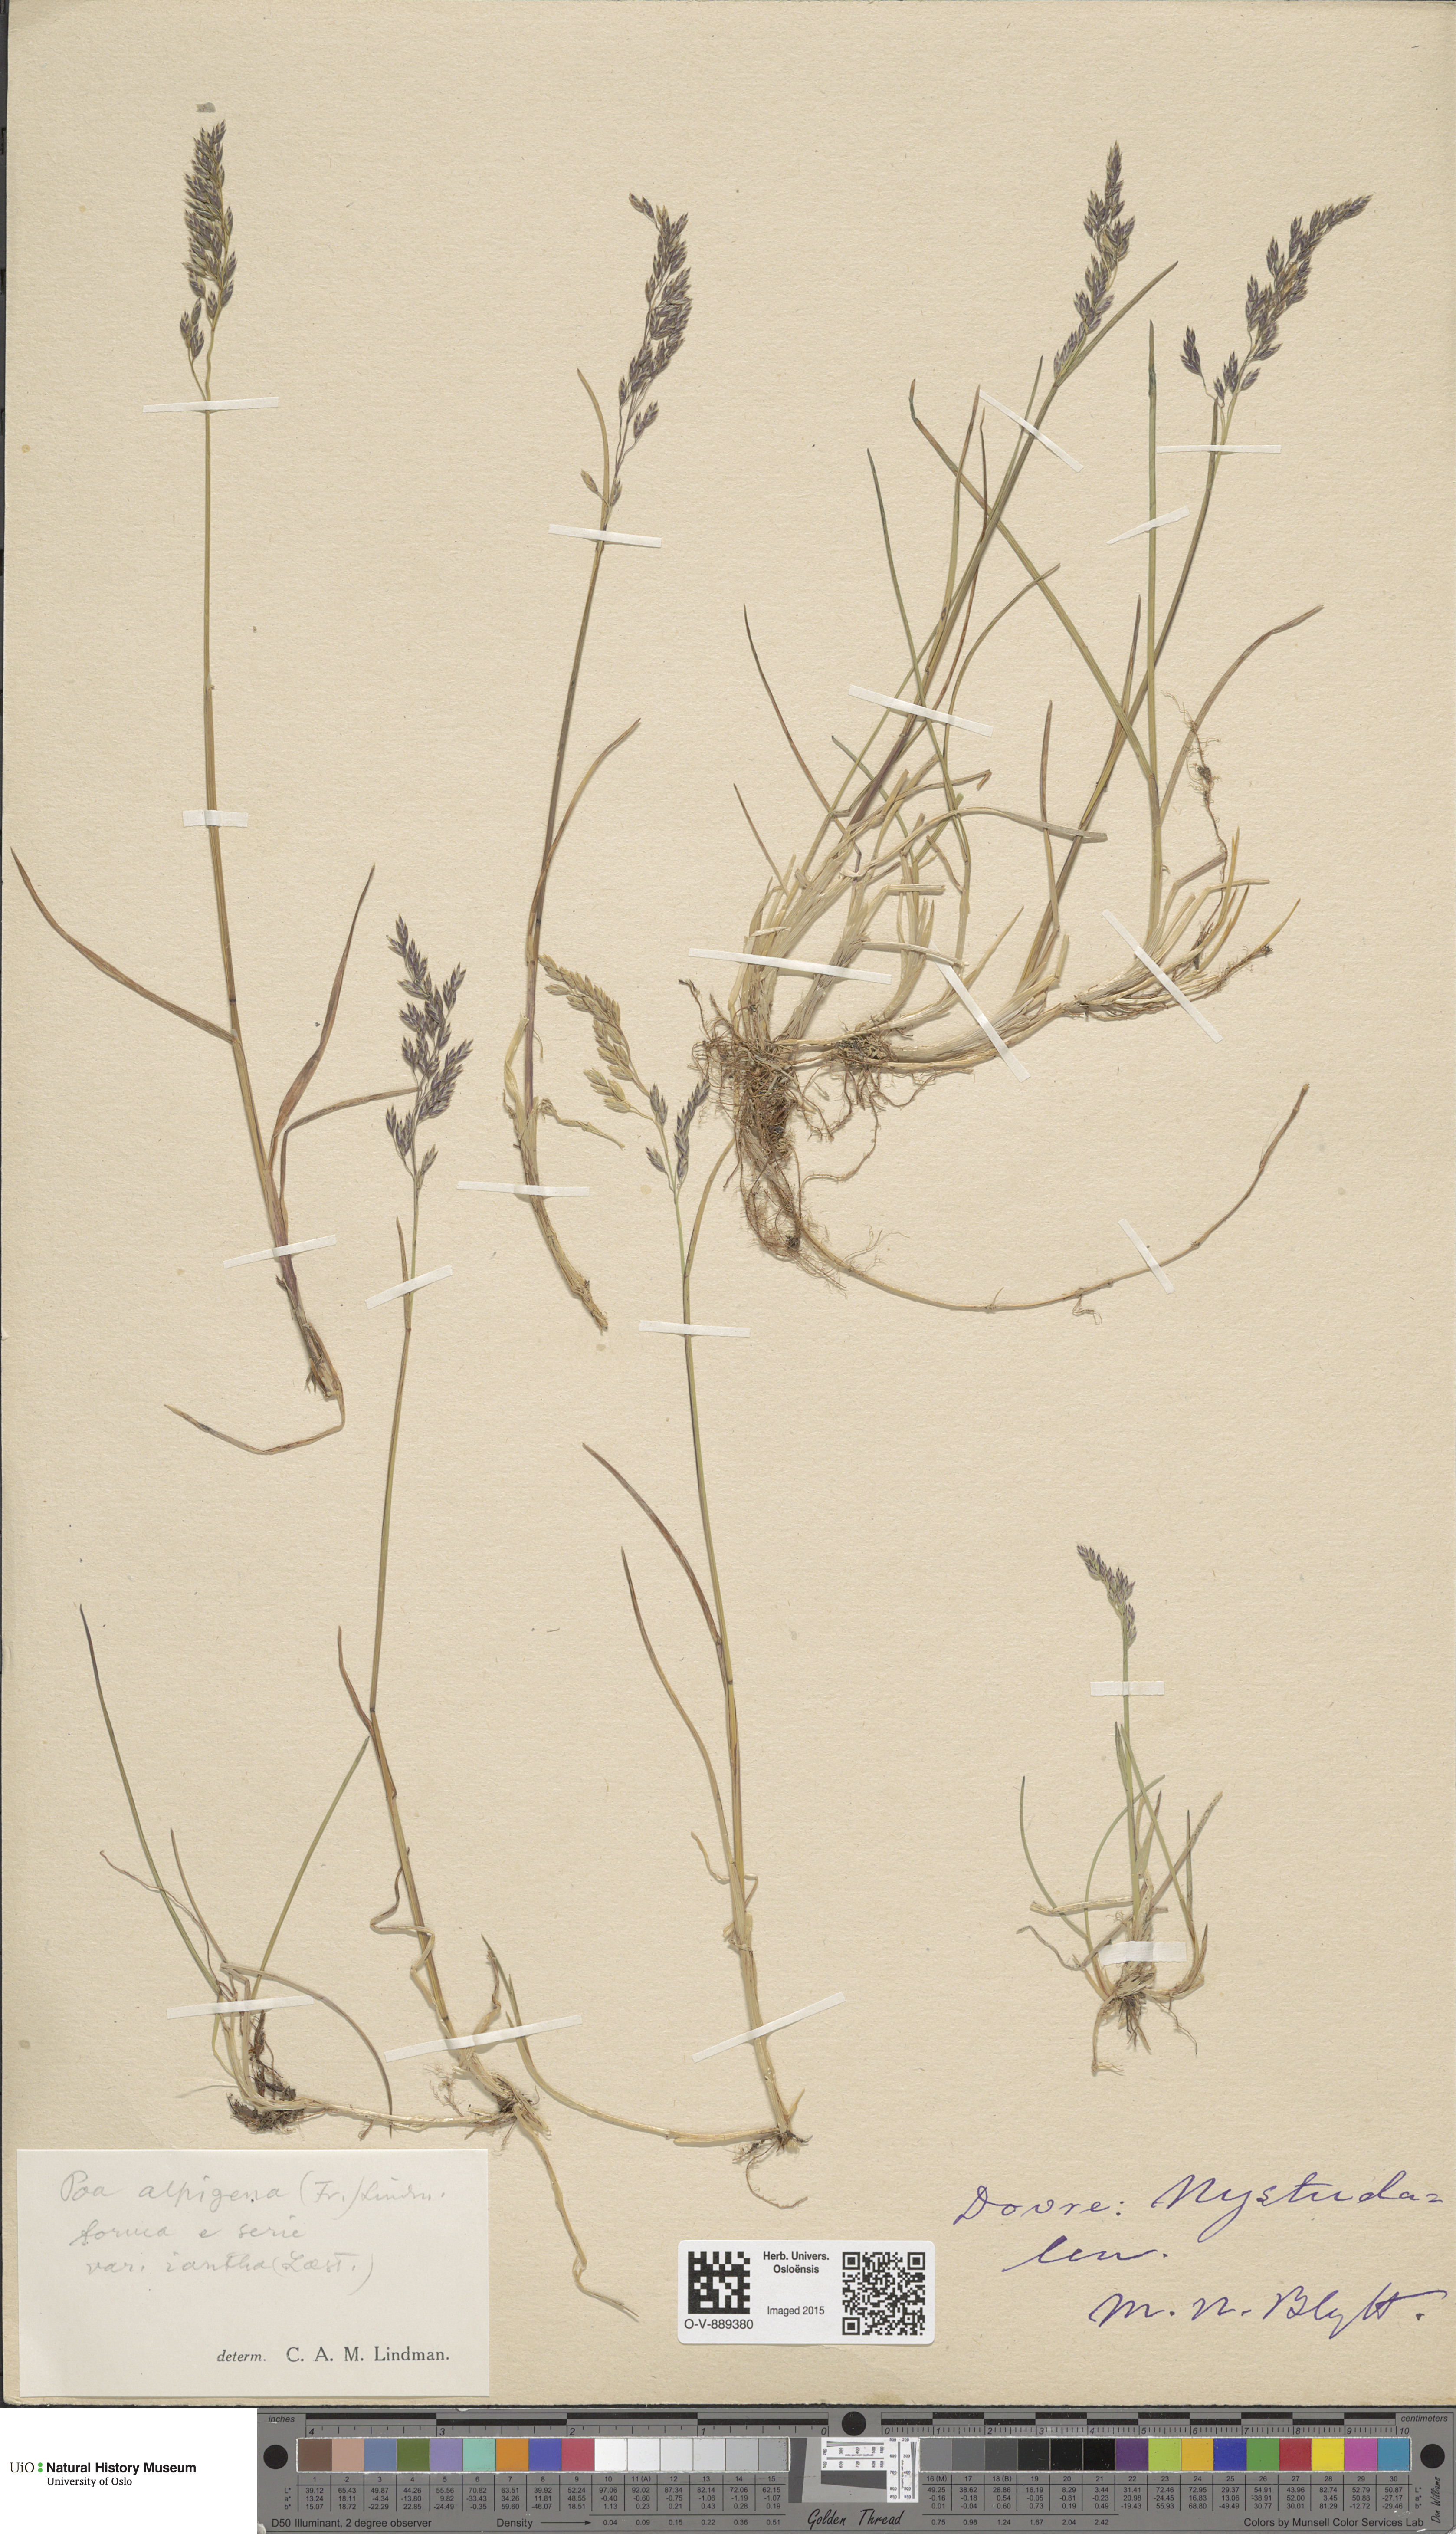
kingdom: Plantae
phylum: Tracheophyta
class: Liliopsida
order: Poales
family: Poaceae
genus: Poa
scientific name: Poa alpigena
